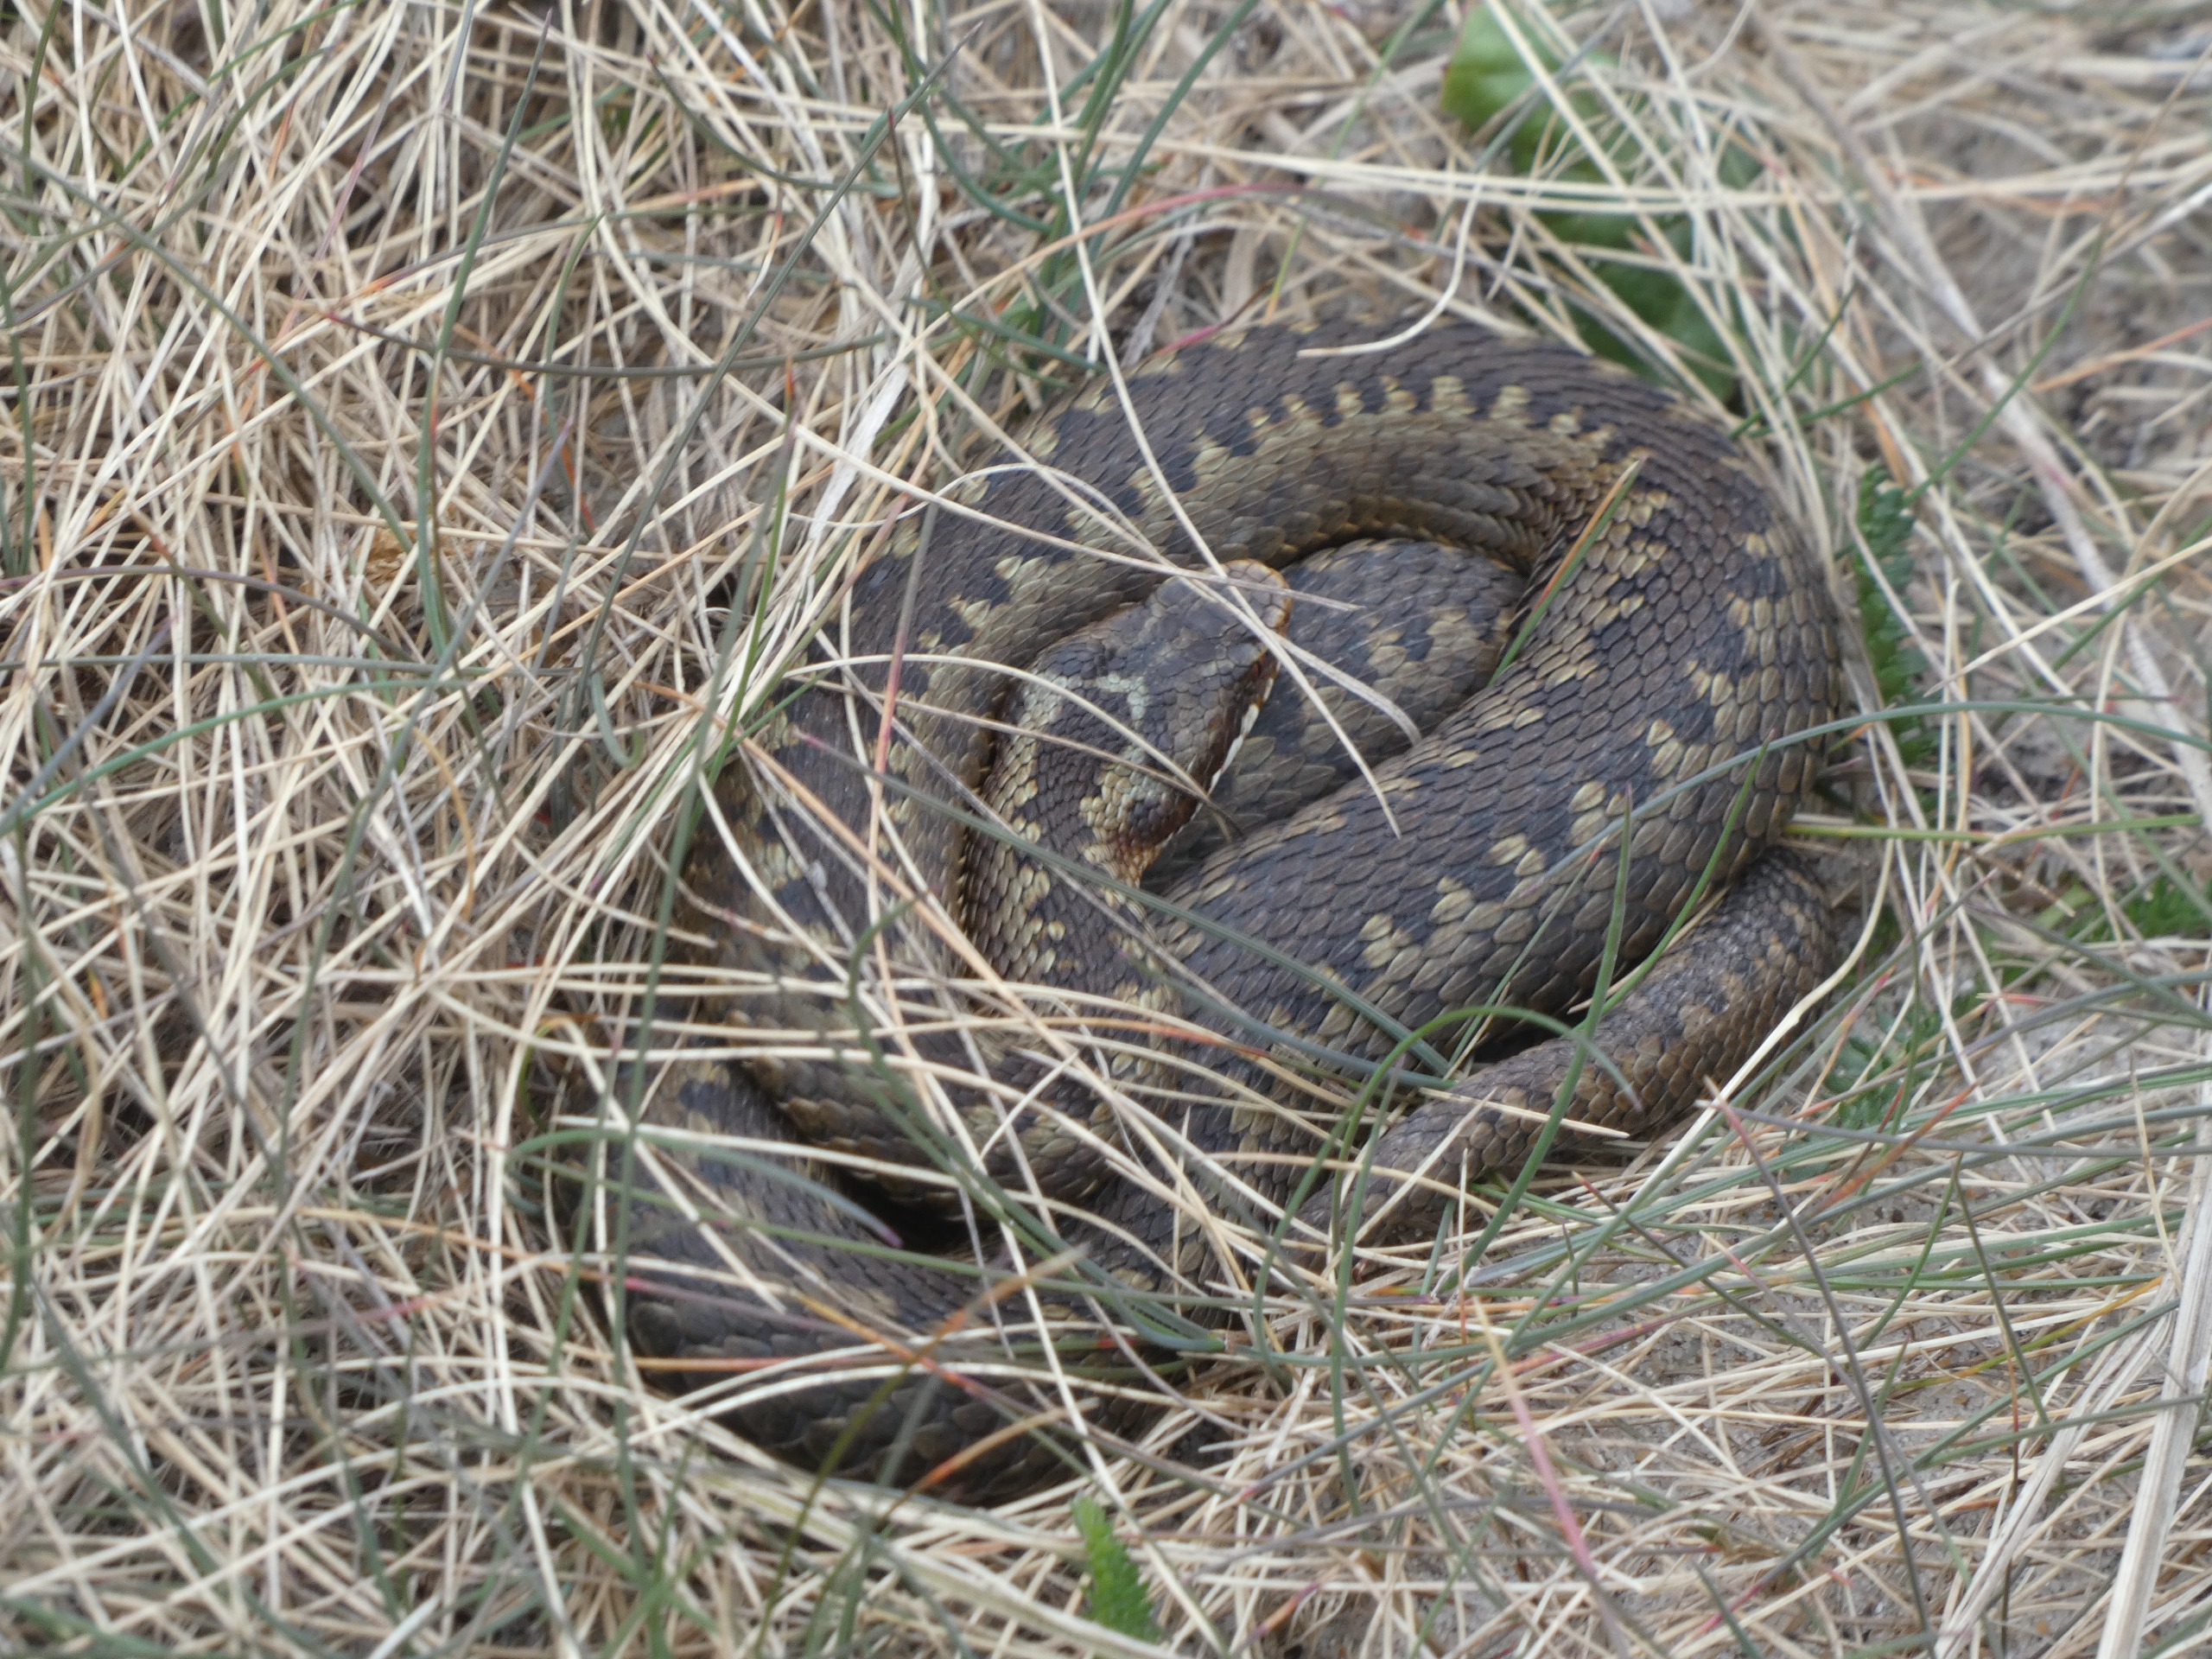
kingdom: Animalia
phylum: Chordata
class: Squamata
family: Viperidae
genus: Vipera
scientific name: Vipera berus
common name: Hugorm
